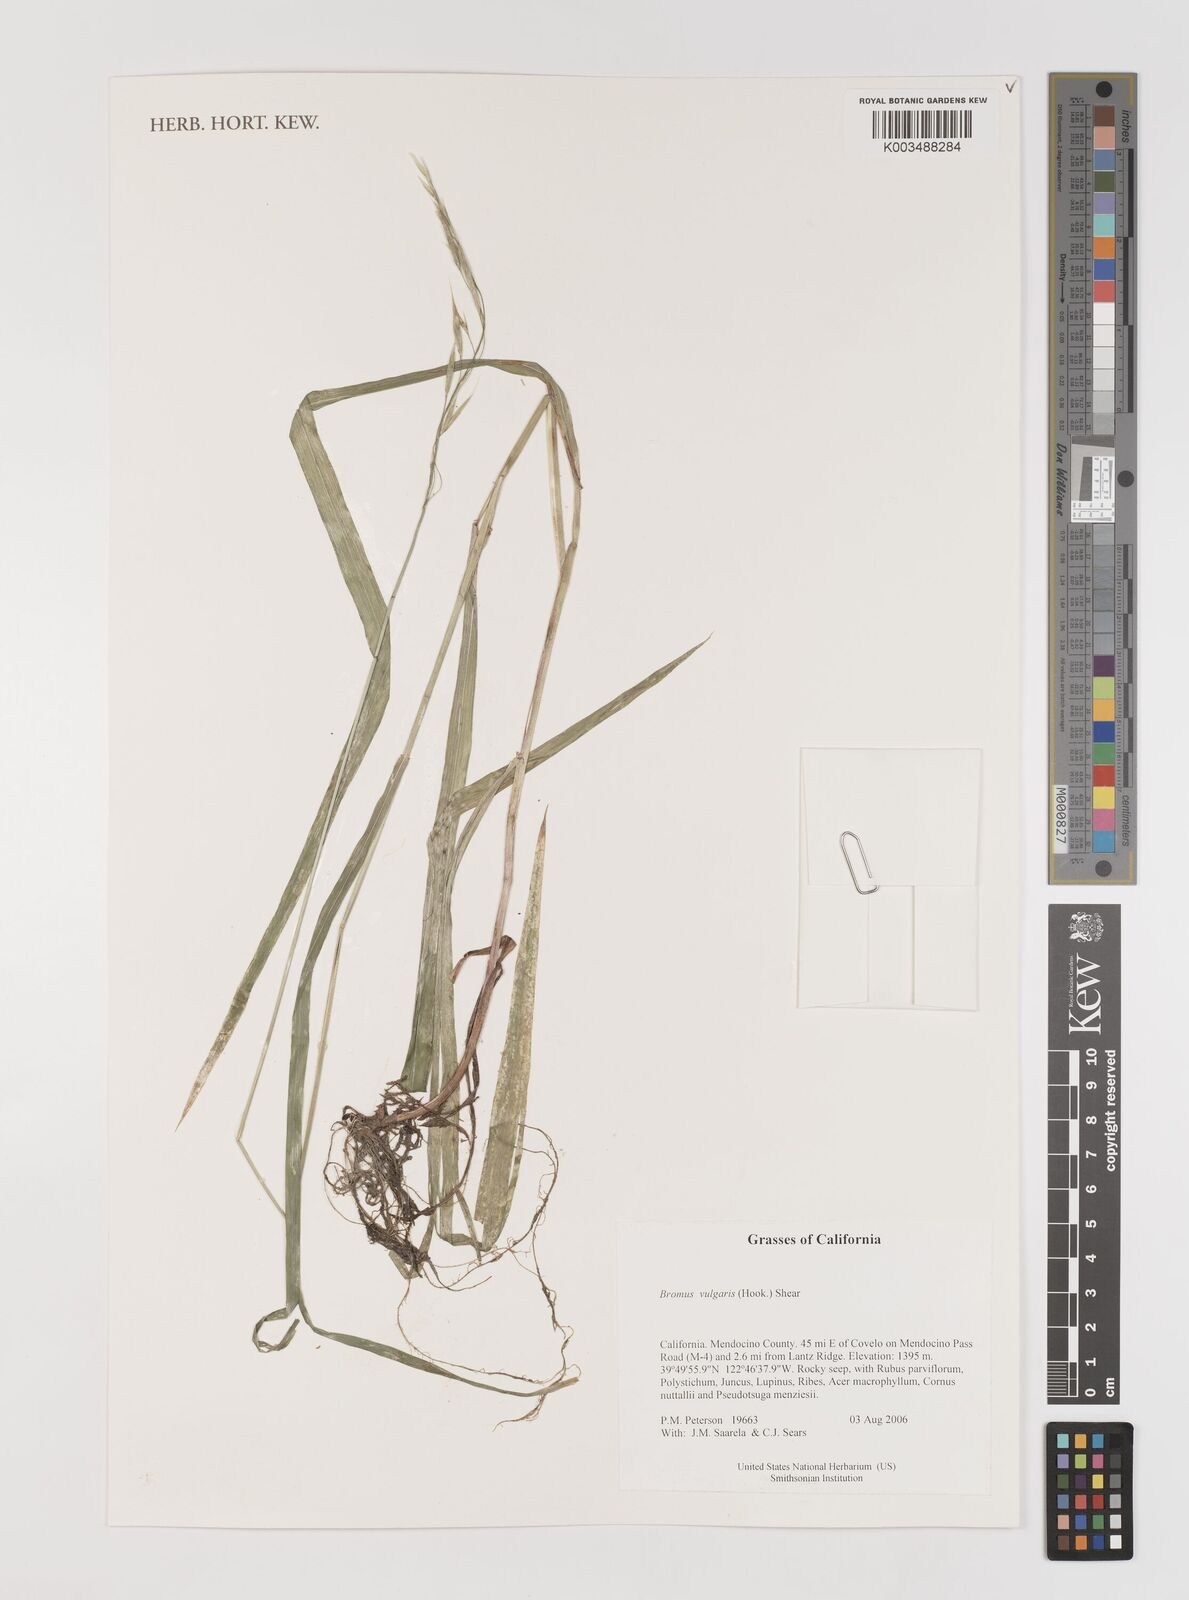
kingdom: Plantae
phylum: Tracheophyta
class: Liliopsida
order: Poales
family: Poaceae
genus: Bromus
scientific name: Bromus vulgaris
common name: Columbia brome
